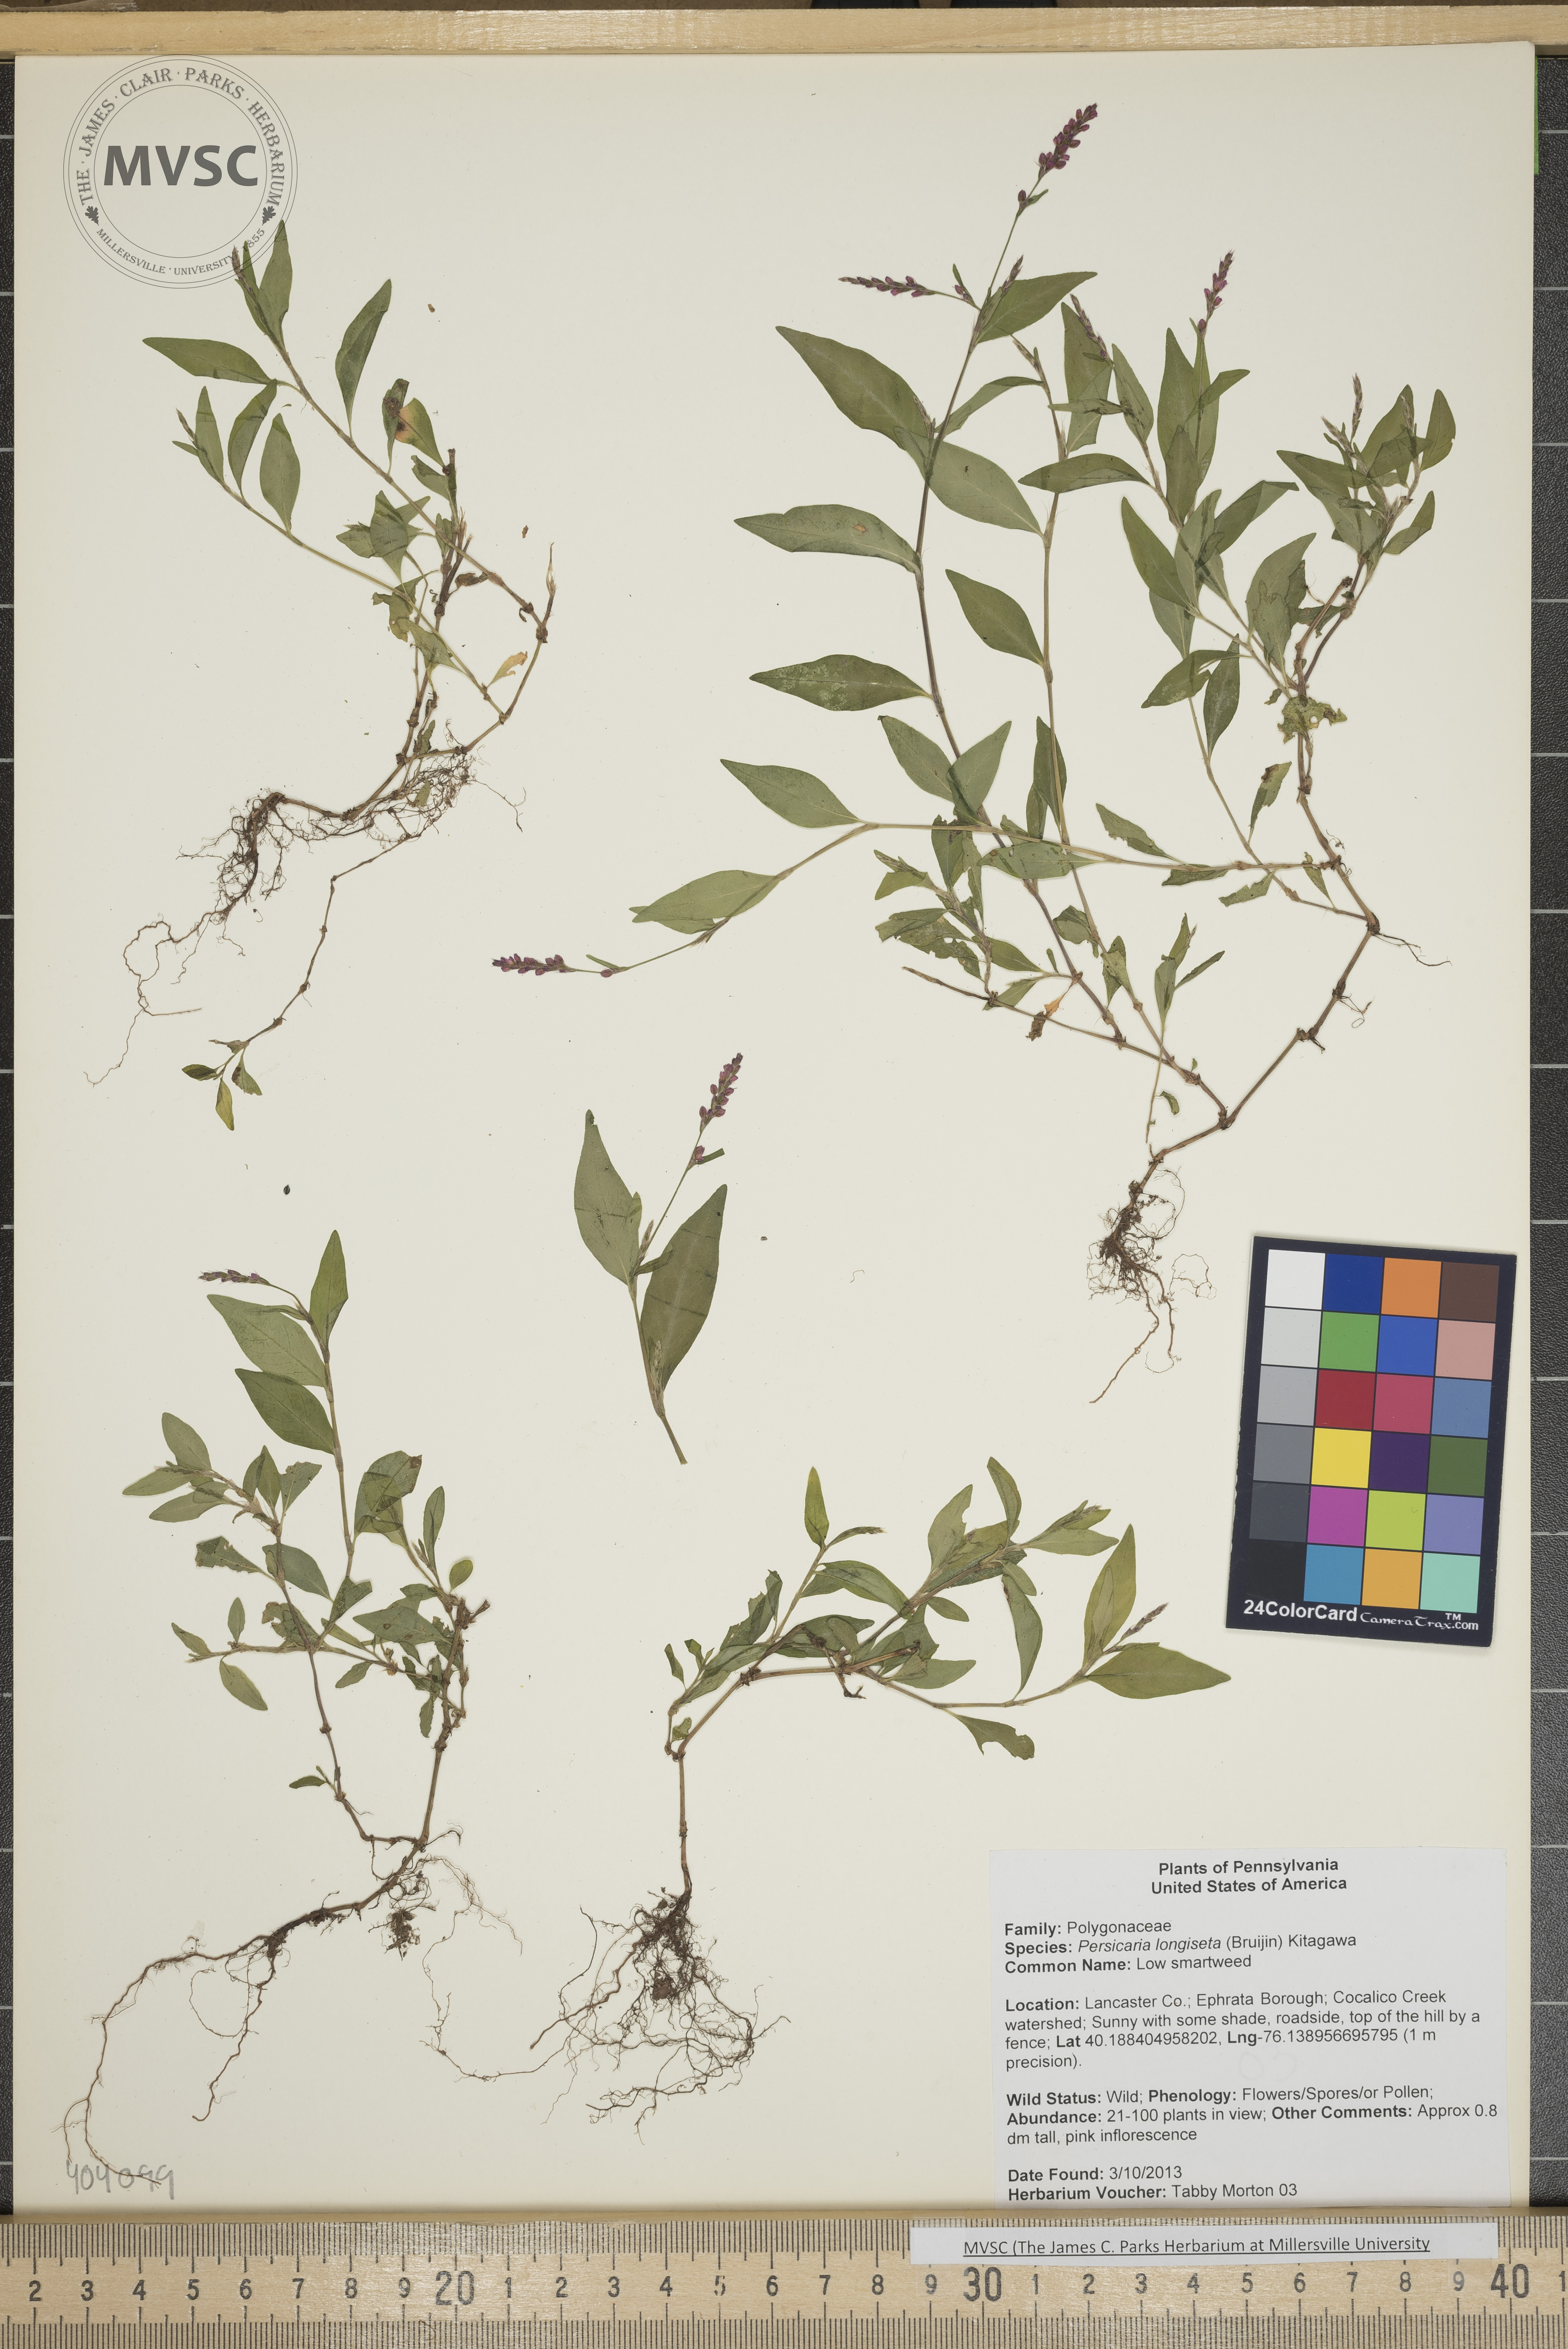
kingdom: Plantae
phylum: Tracheophyta
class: Magnoliopsida
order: Caryophyllales
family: Polygonaceae
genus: Persicaria
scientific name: Persicaria longiseta
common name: Low smartweed
